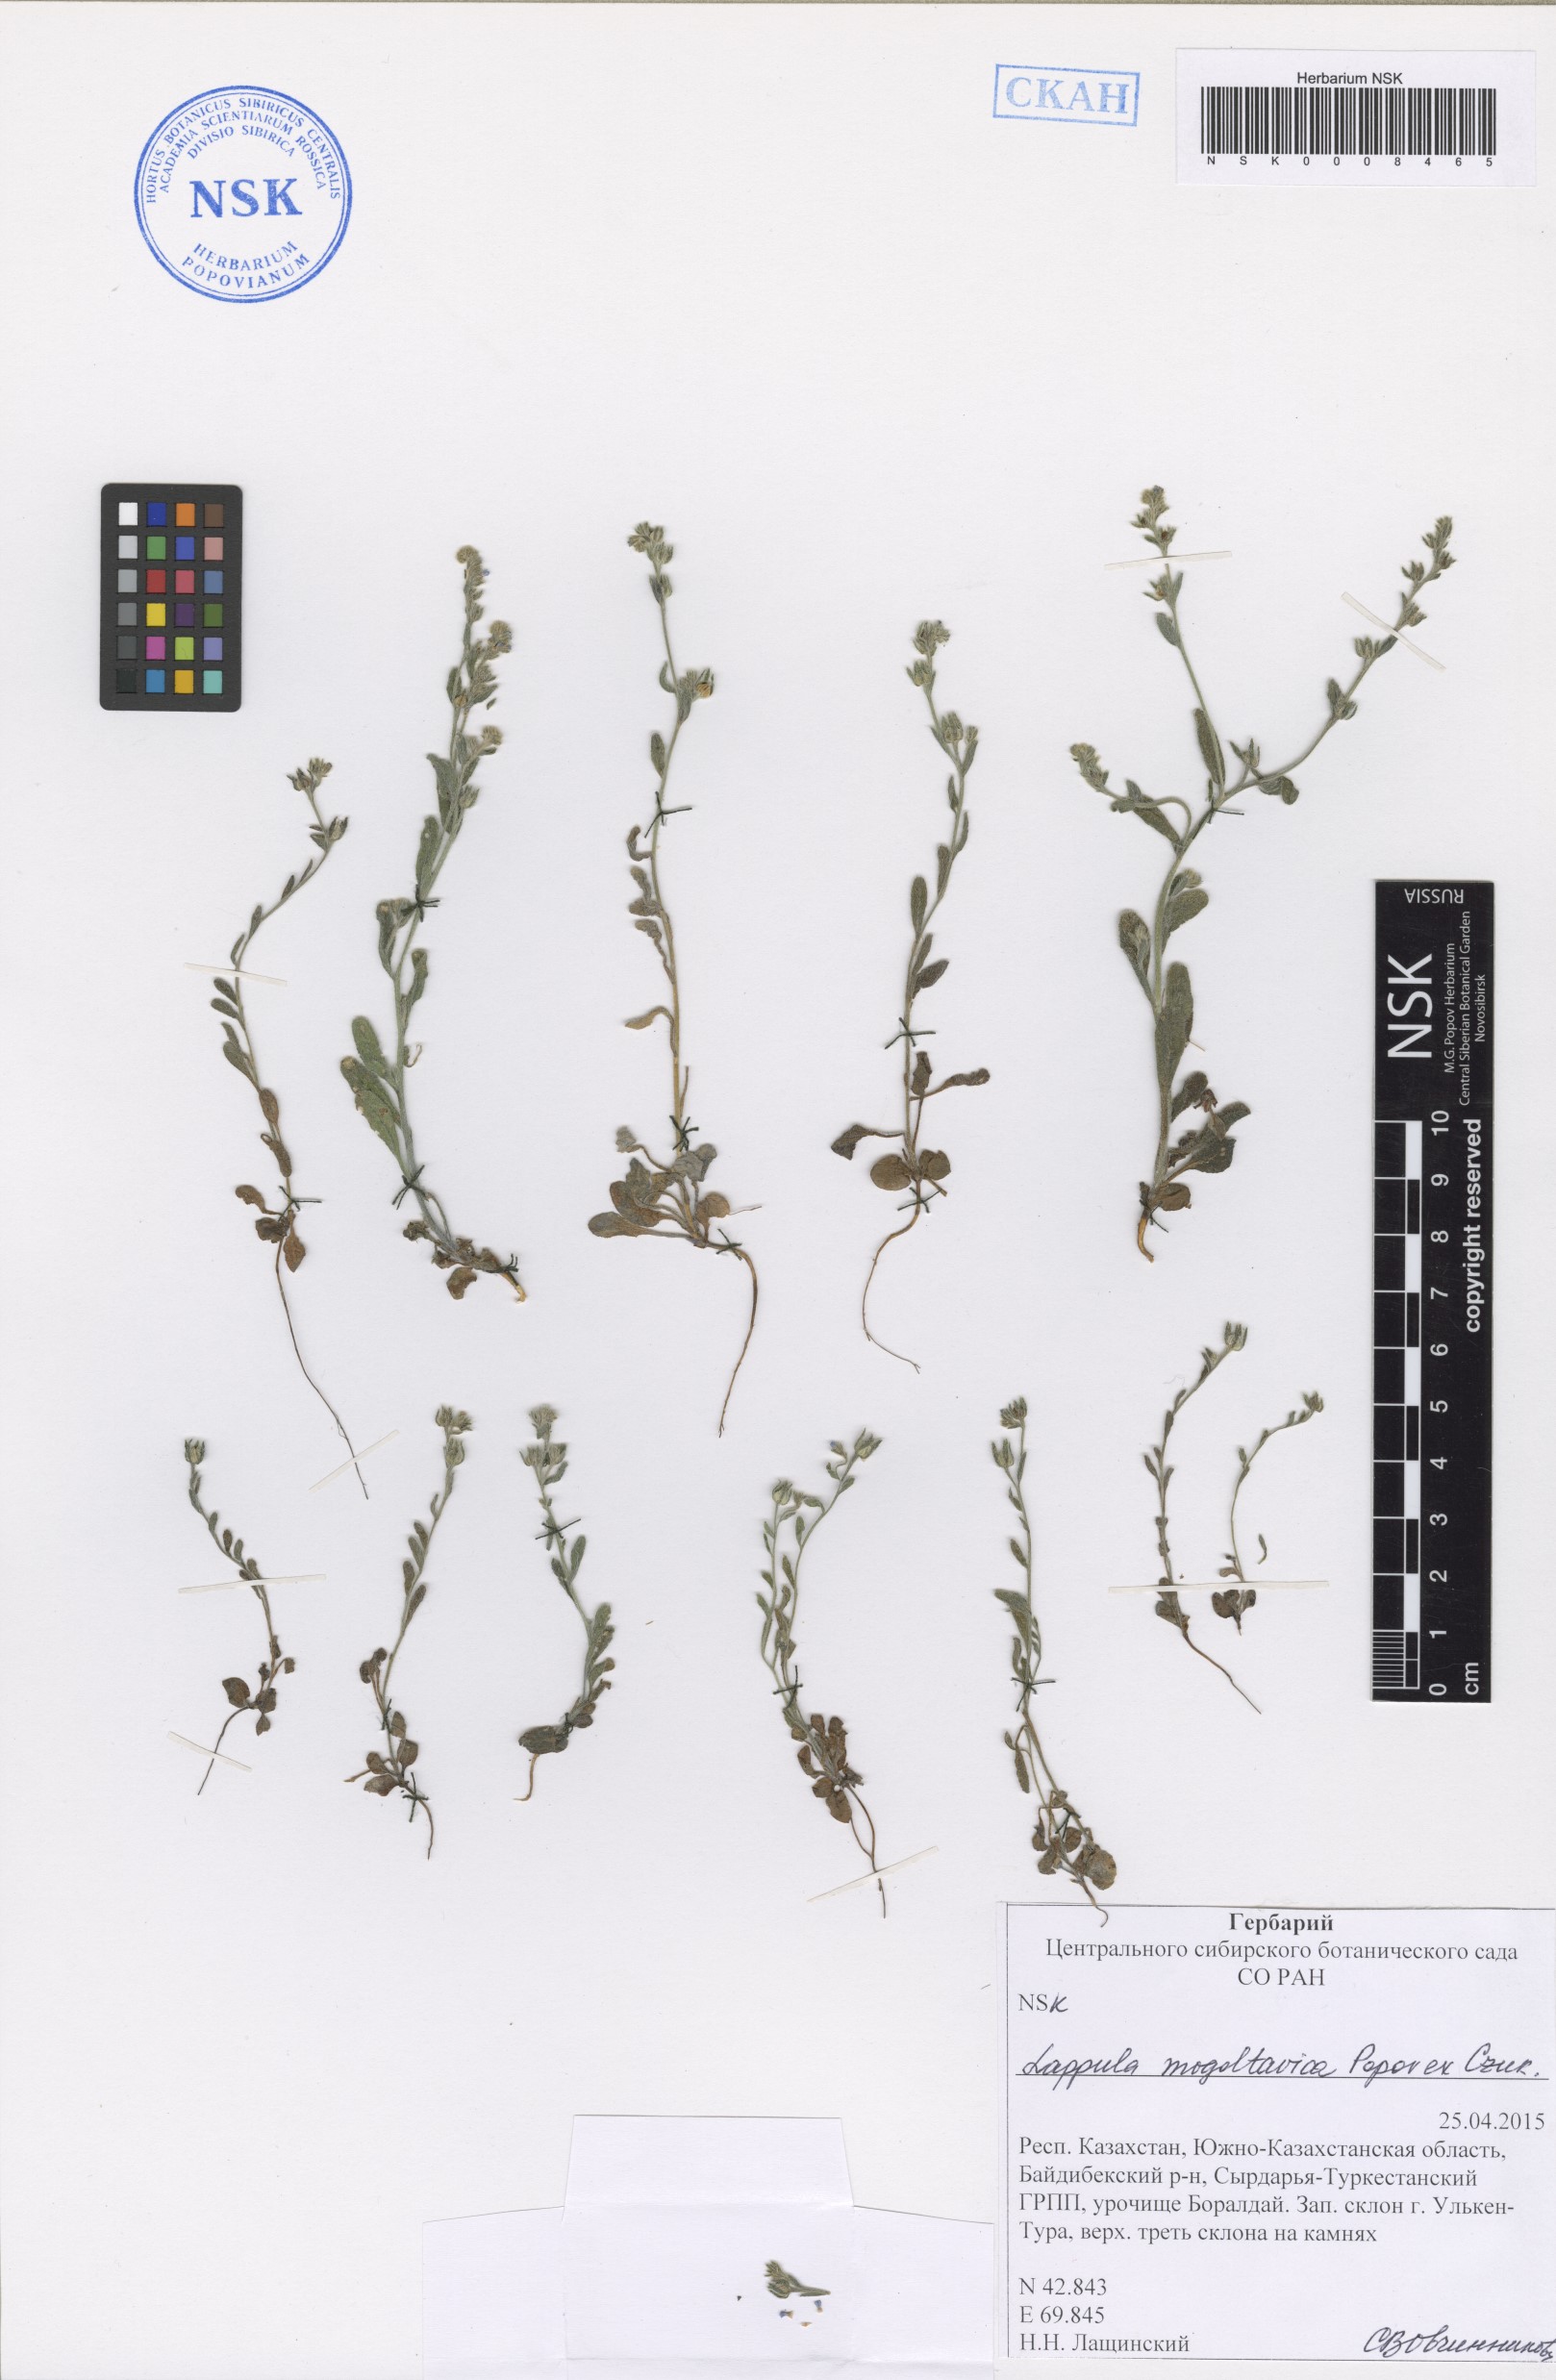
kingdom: Plantae
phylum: Tracheophyta
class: Magnoliopsida
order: Boraginales
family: Boraginaceae
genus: Lappula
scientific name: Lappula mogoltavica
